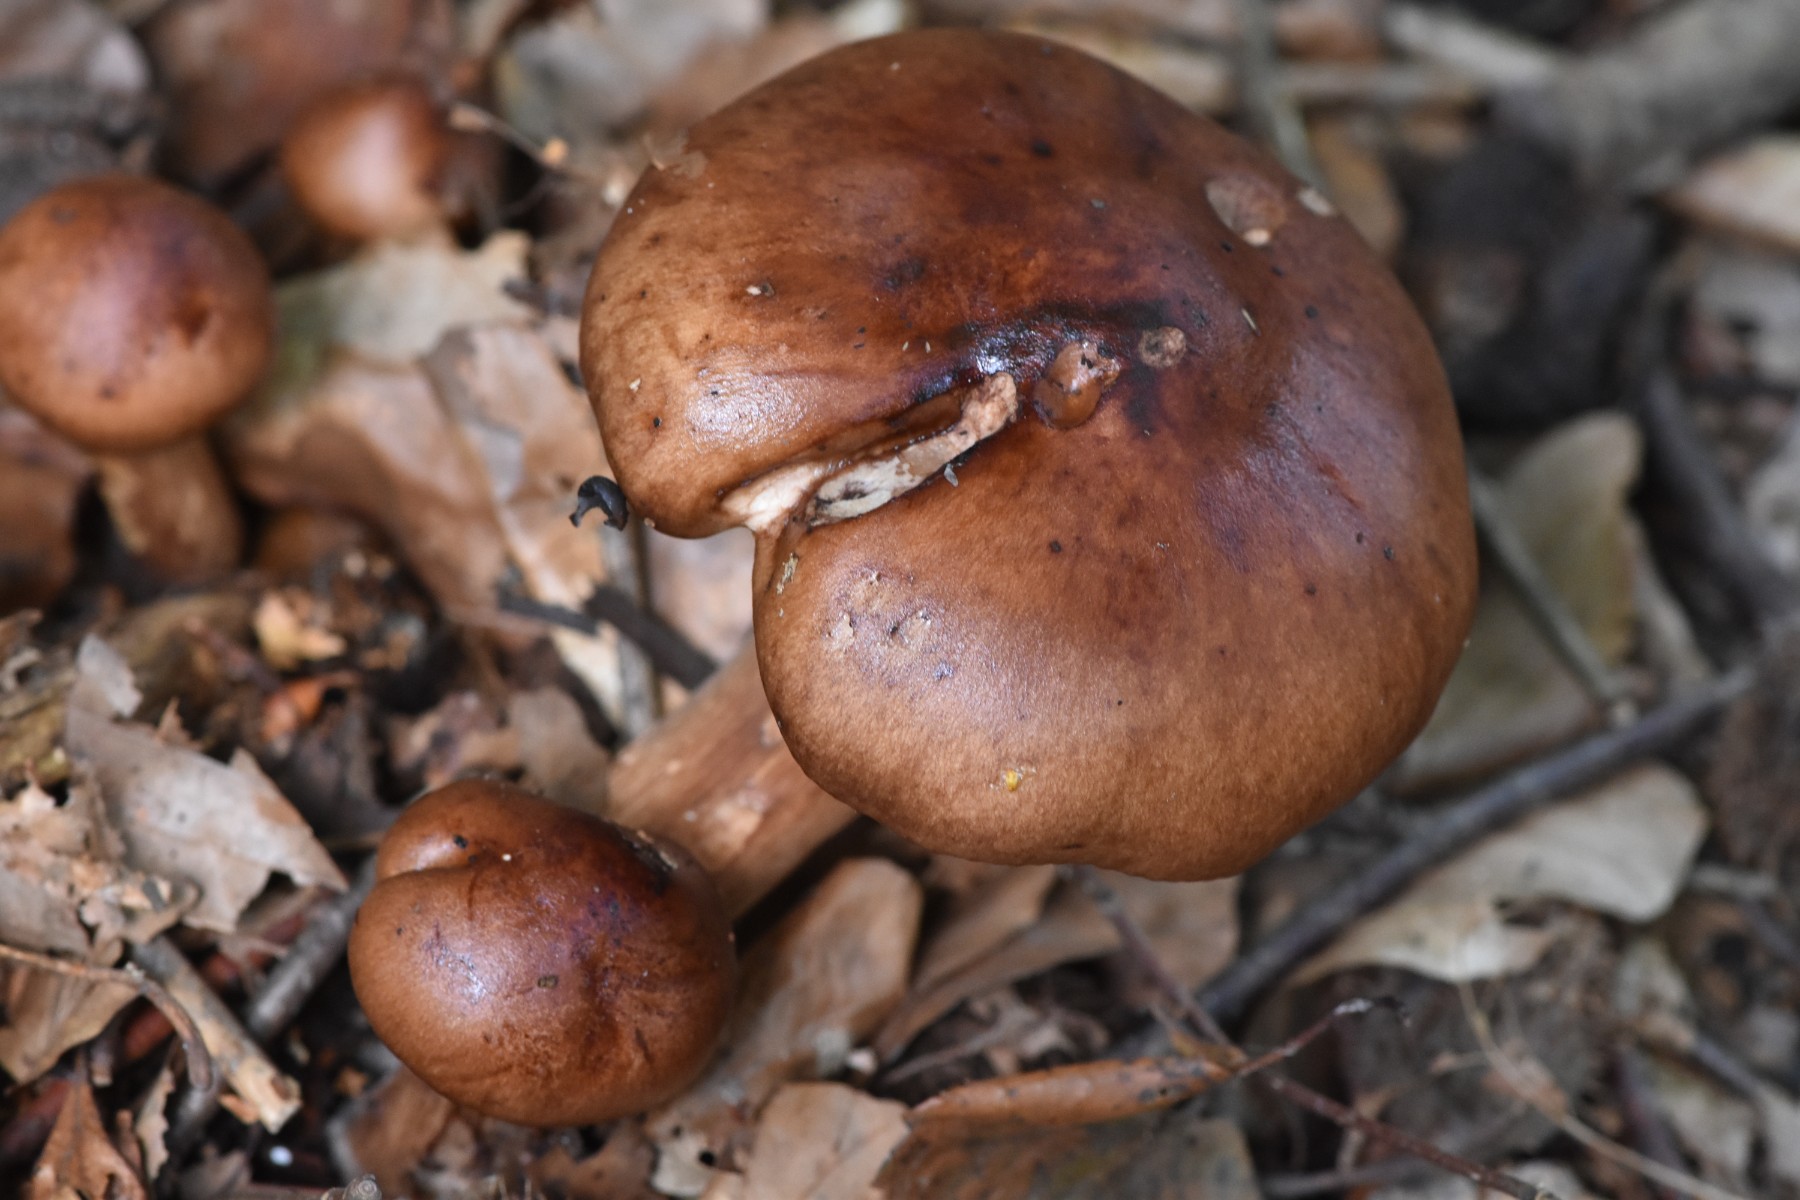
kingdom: Fungi
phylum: Basidiomycota
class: Agaricomycetes
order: Agaricales
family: Tricholomataceae
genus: Tricholoma
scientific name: Tricholoma ustale
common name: sveden ridderhat
